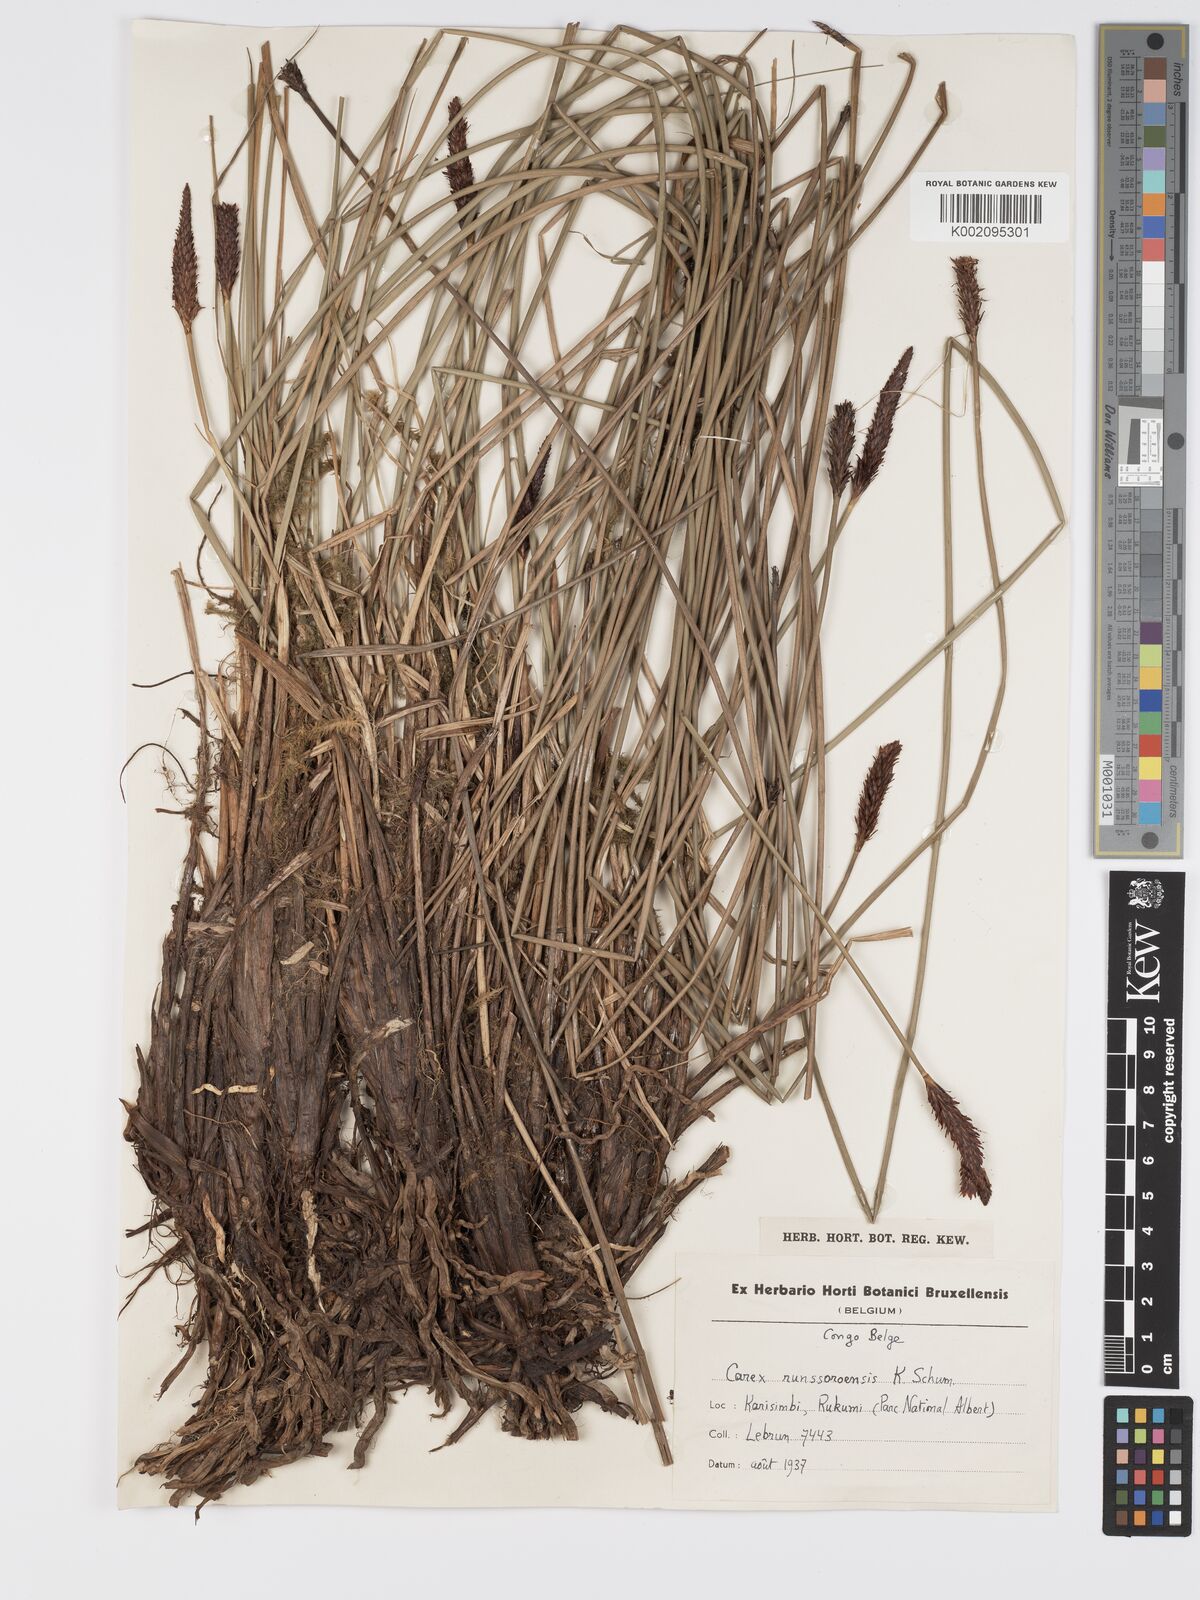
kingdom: Plantae
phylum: Tracheophyta
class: Liliopsida
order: Poales
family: Cyperaceae
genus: Carex
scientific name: Carex runssoroensis
